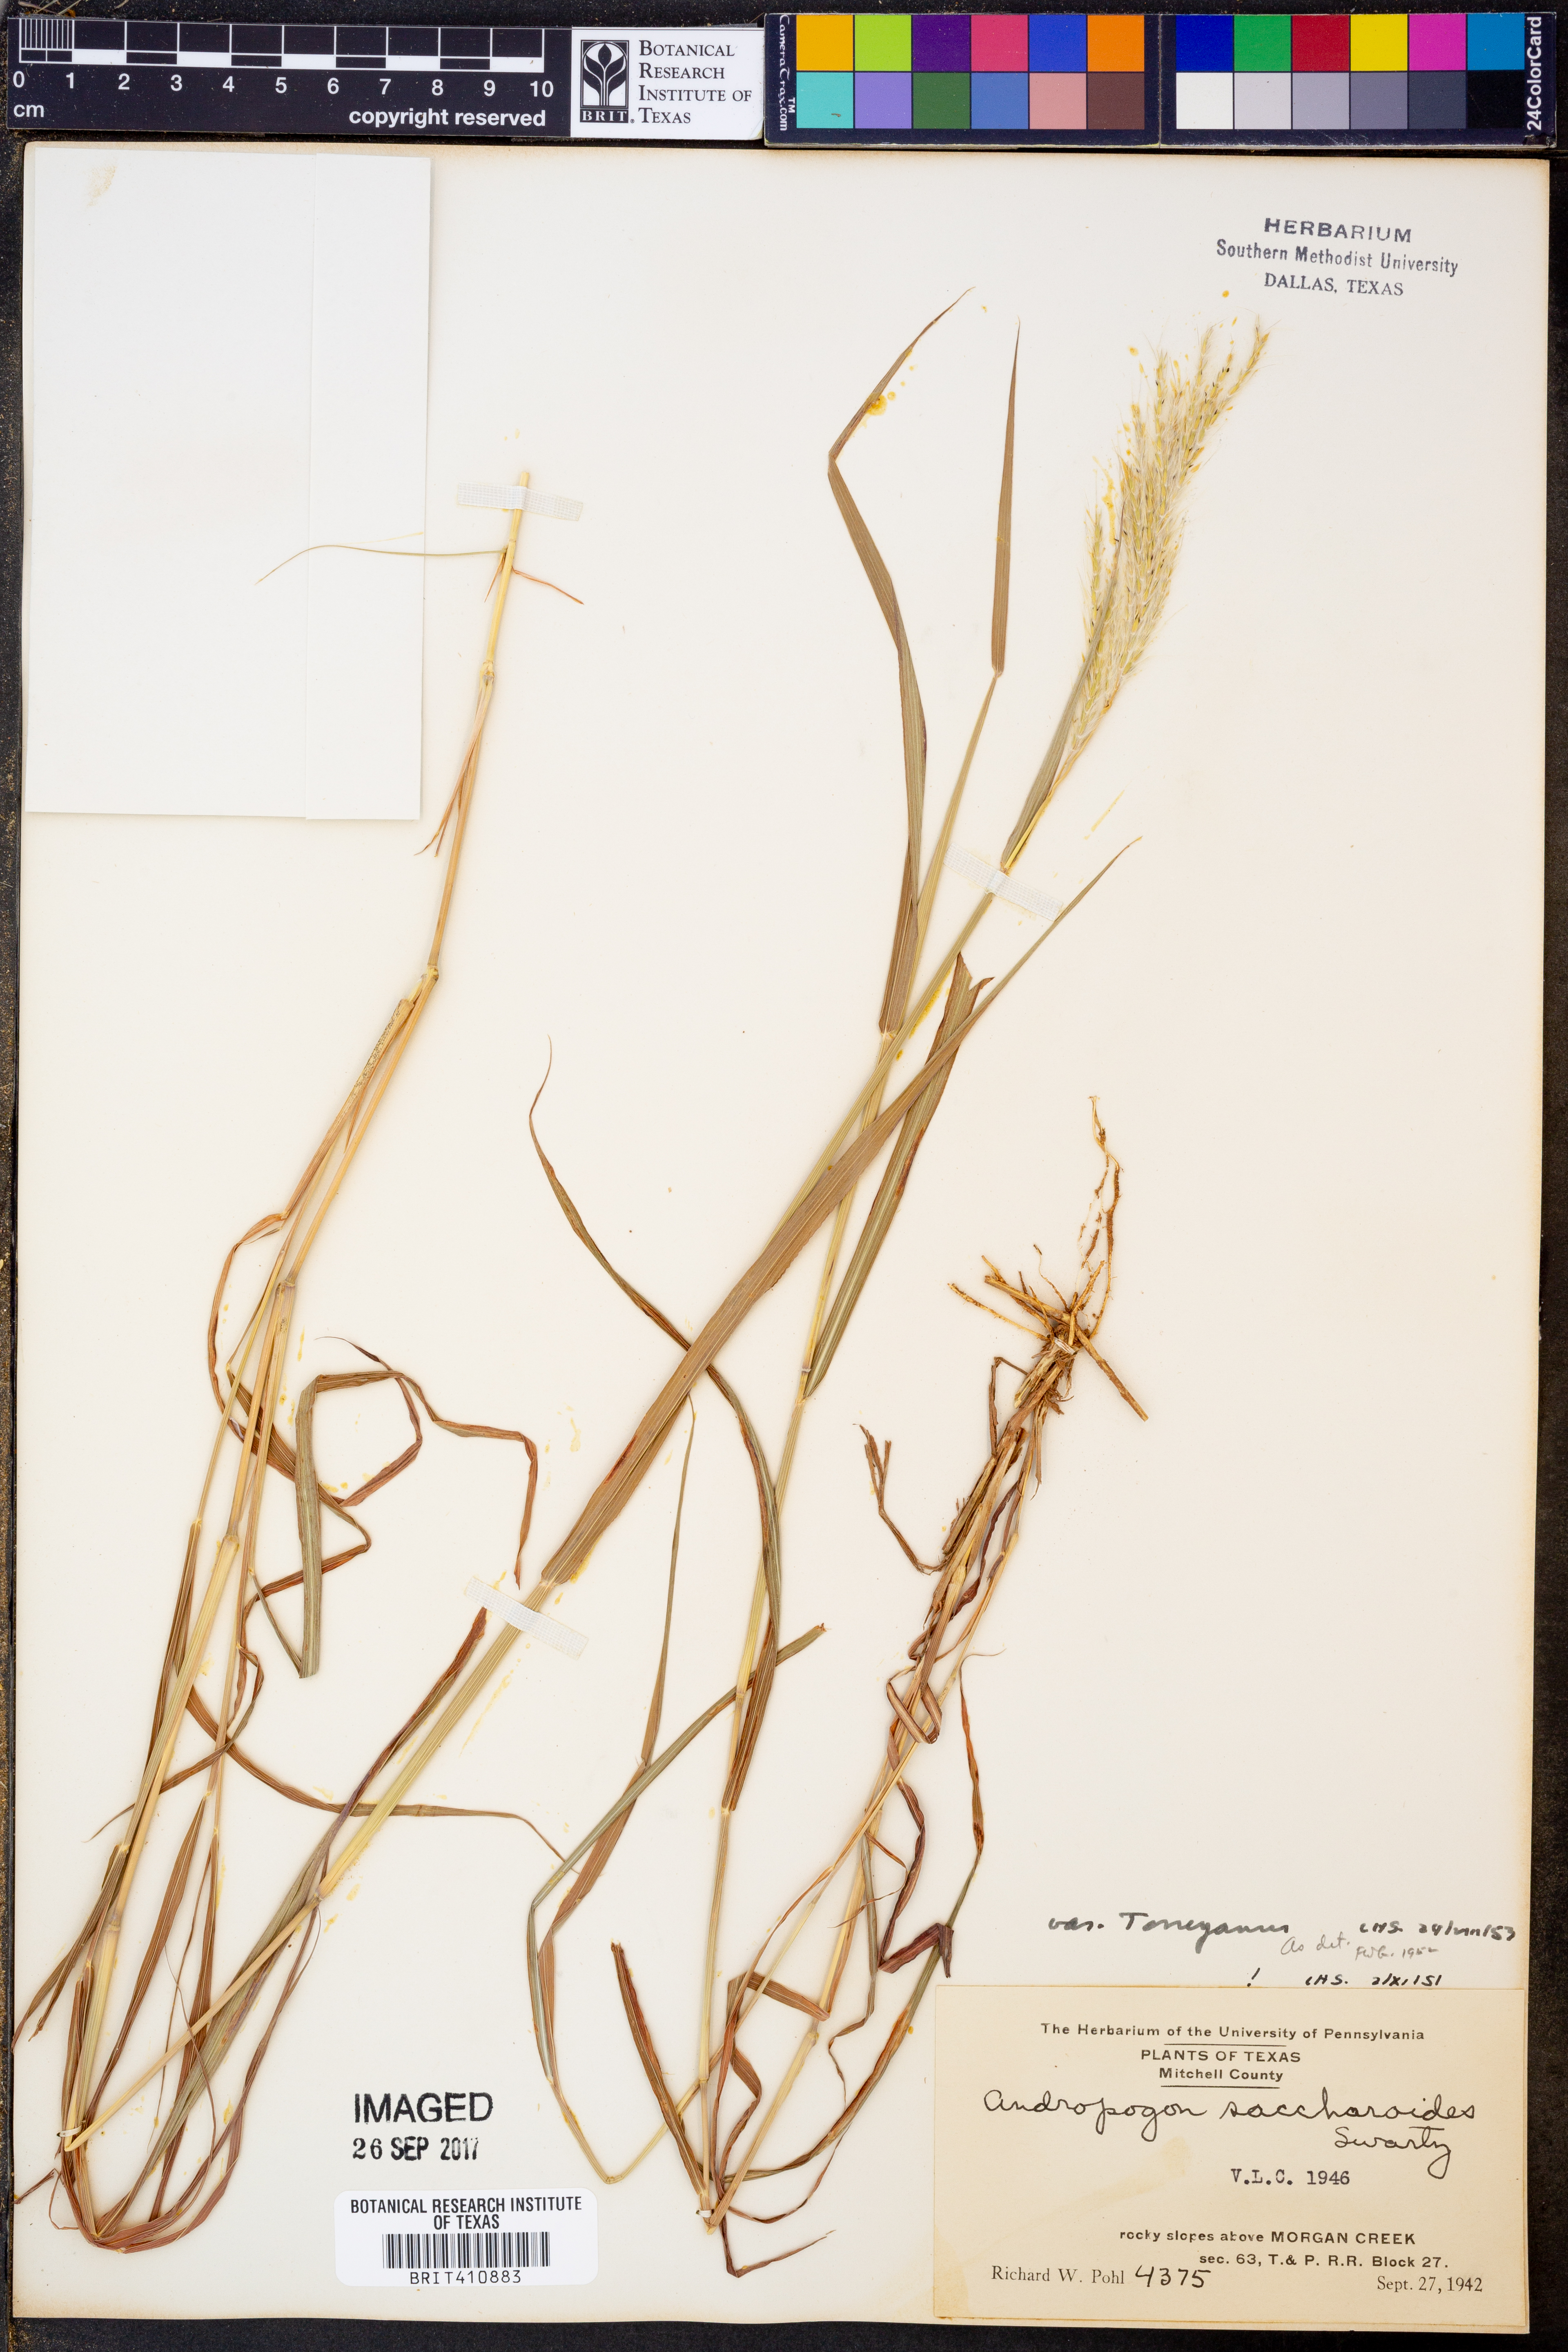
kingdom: Plantae
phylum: Tracheophyta
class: Liliopsida
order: Poales
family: Poaceae
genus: Bothriochloa
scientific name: Bothriochloa torreyana
